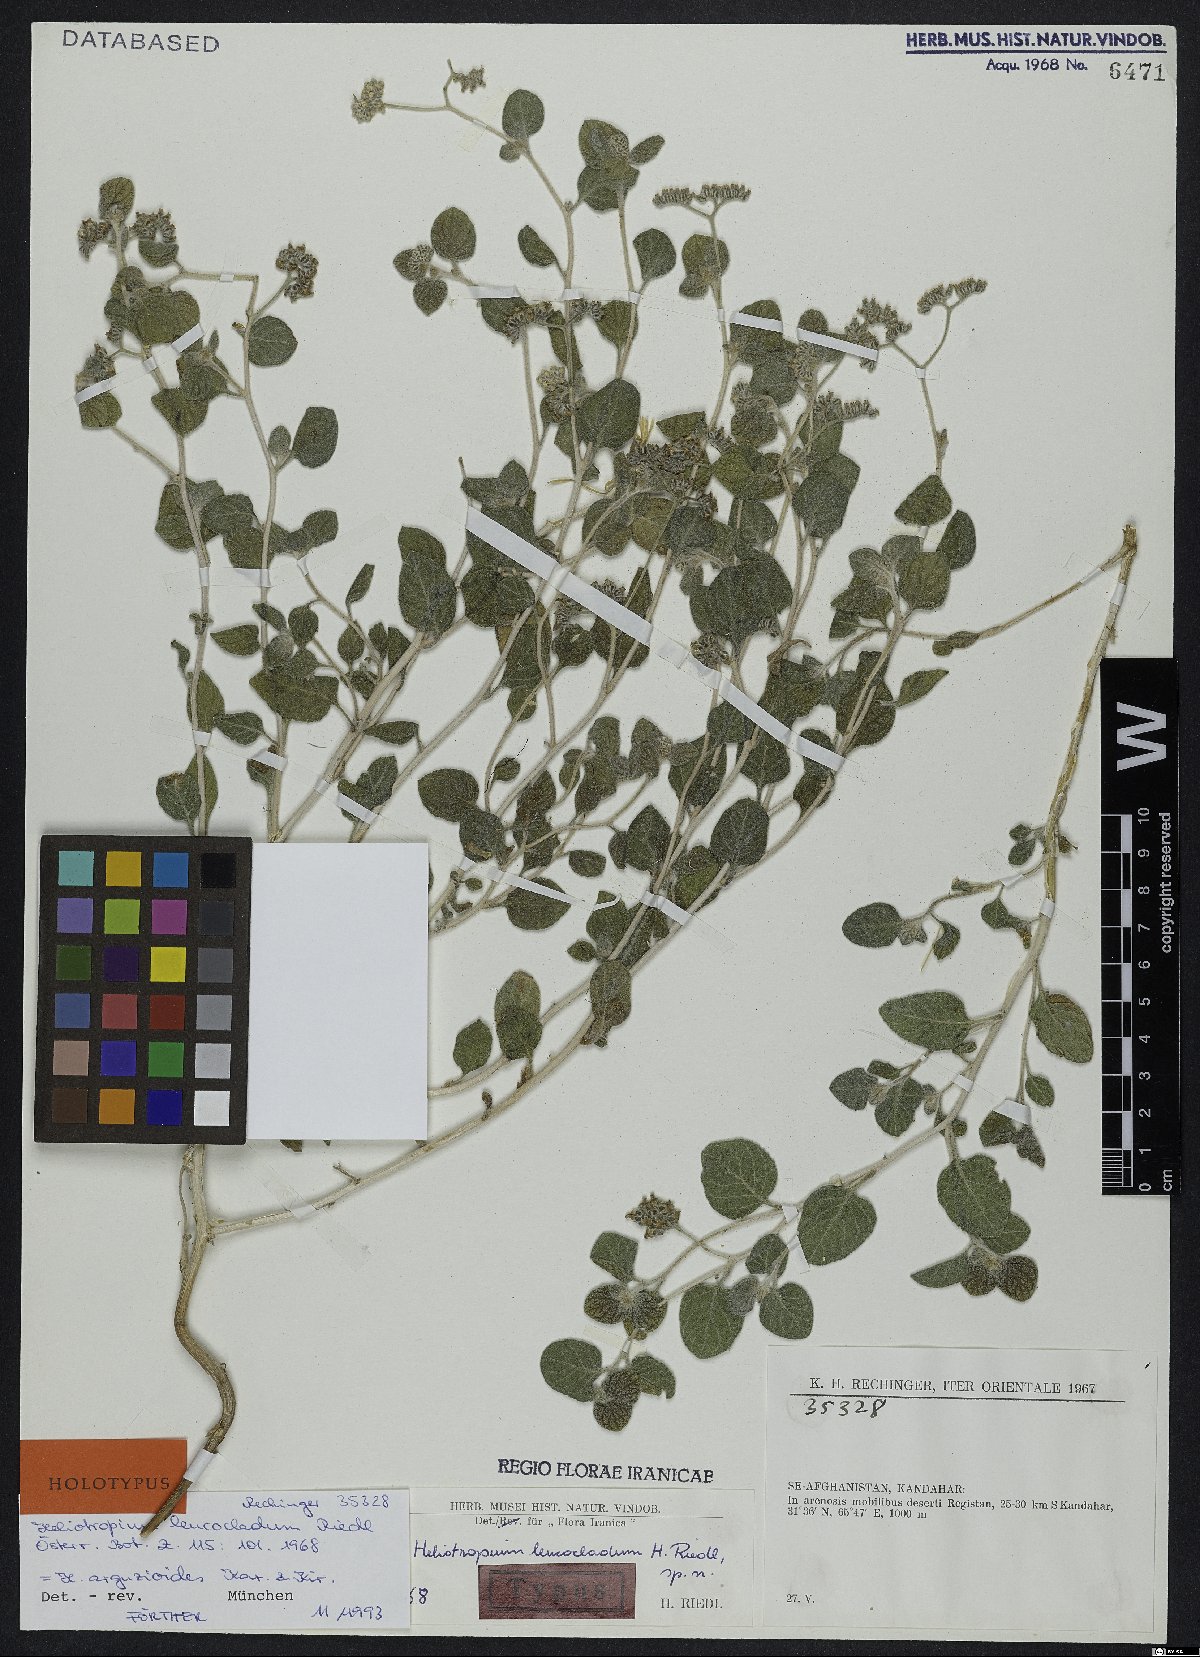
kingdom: Plantae
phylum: Tracheophyta
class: Magnoliopsida
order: Boraginales
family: Heliotropiaceae
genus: Heliotropium
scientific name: Heliotropium arguzioides
